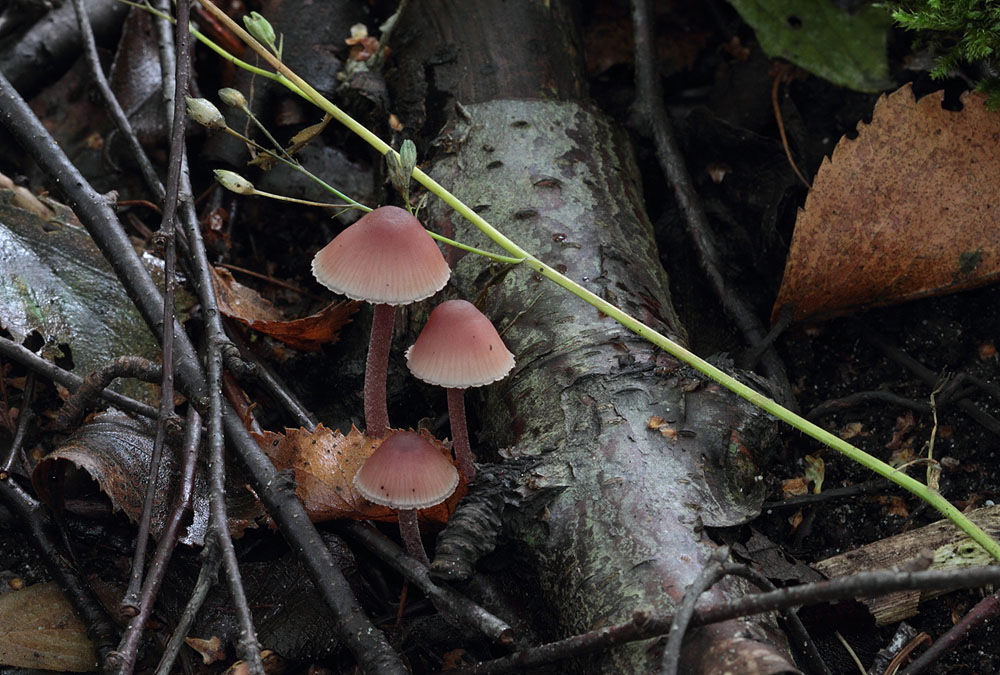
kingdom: Fungi
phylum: Basidiomycota
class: Agaricomycetes
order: Agaricales
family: Mycenaceae
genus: Mycena
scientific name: Mycena haematopus
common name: blødende huesvamp
